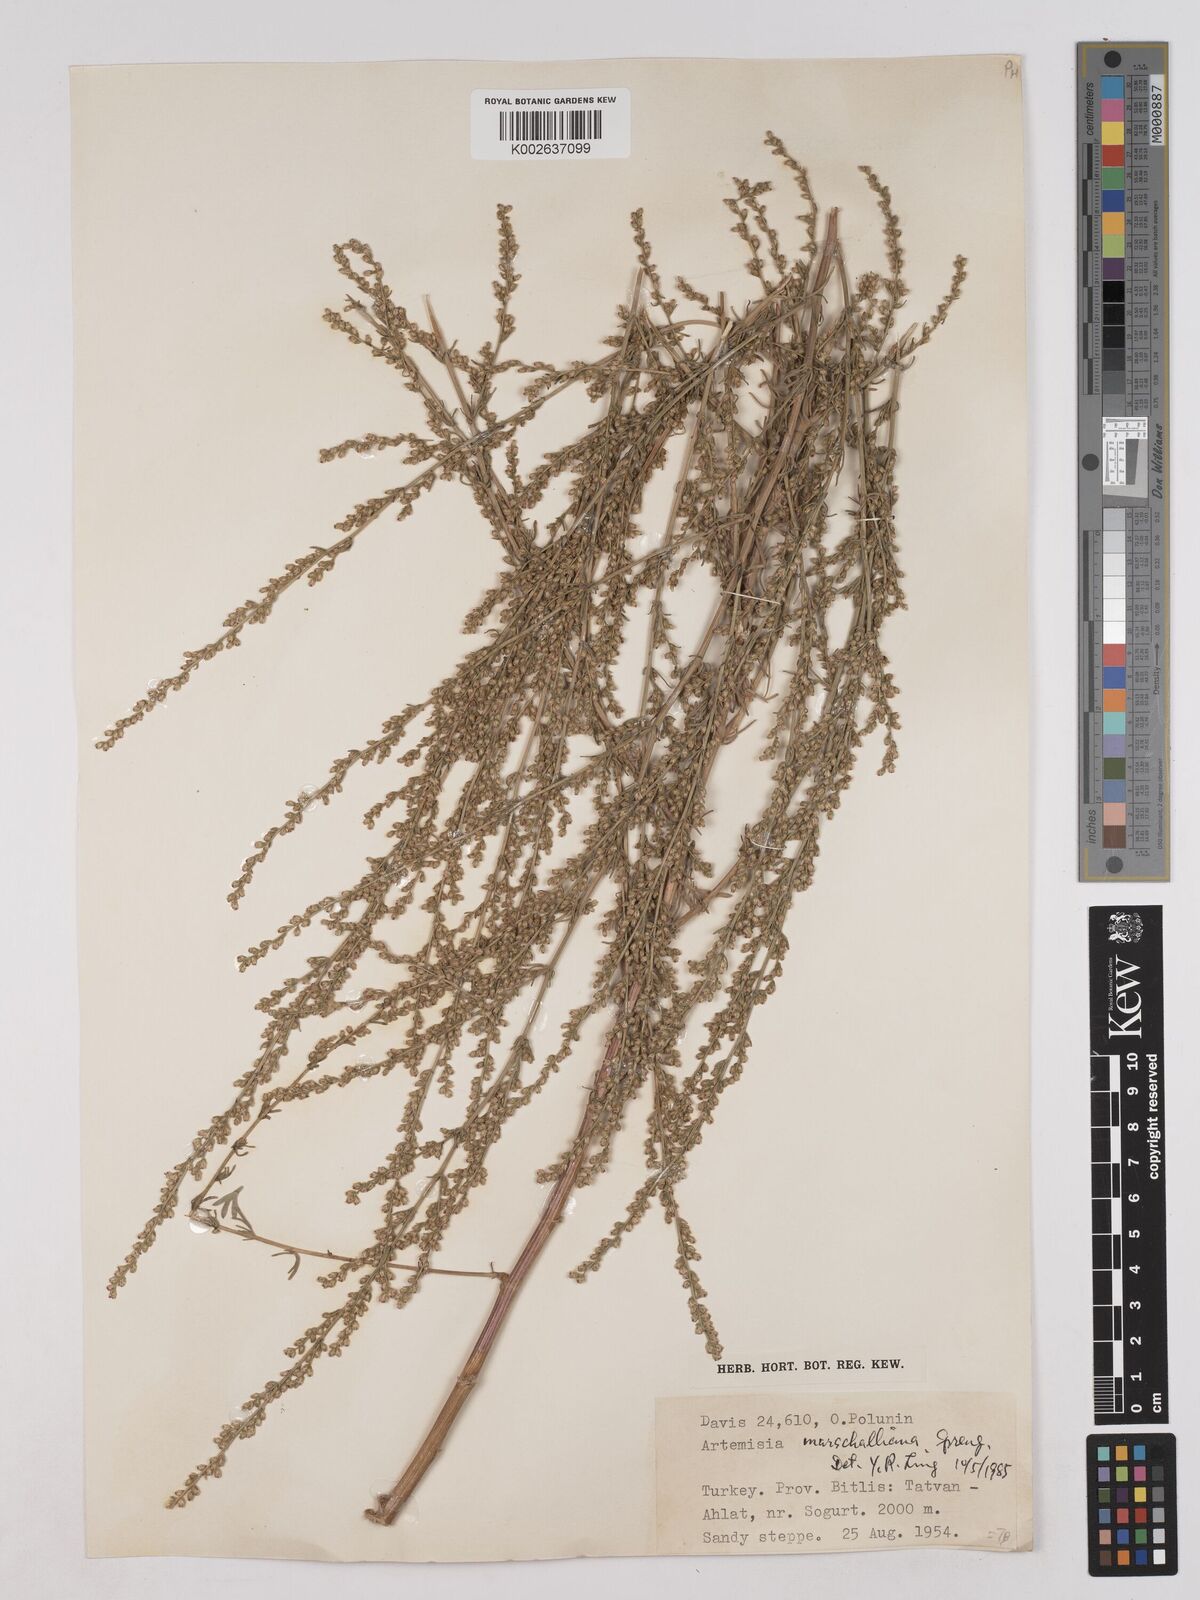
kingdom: Plantae
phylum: Tracheophyta
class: Magnoliopsida
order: Asterales
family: Asteraceae
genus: Artemisia
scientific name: Artemisia marschalliana
